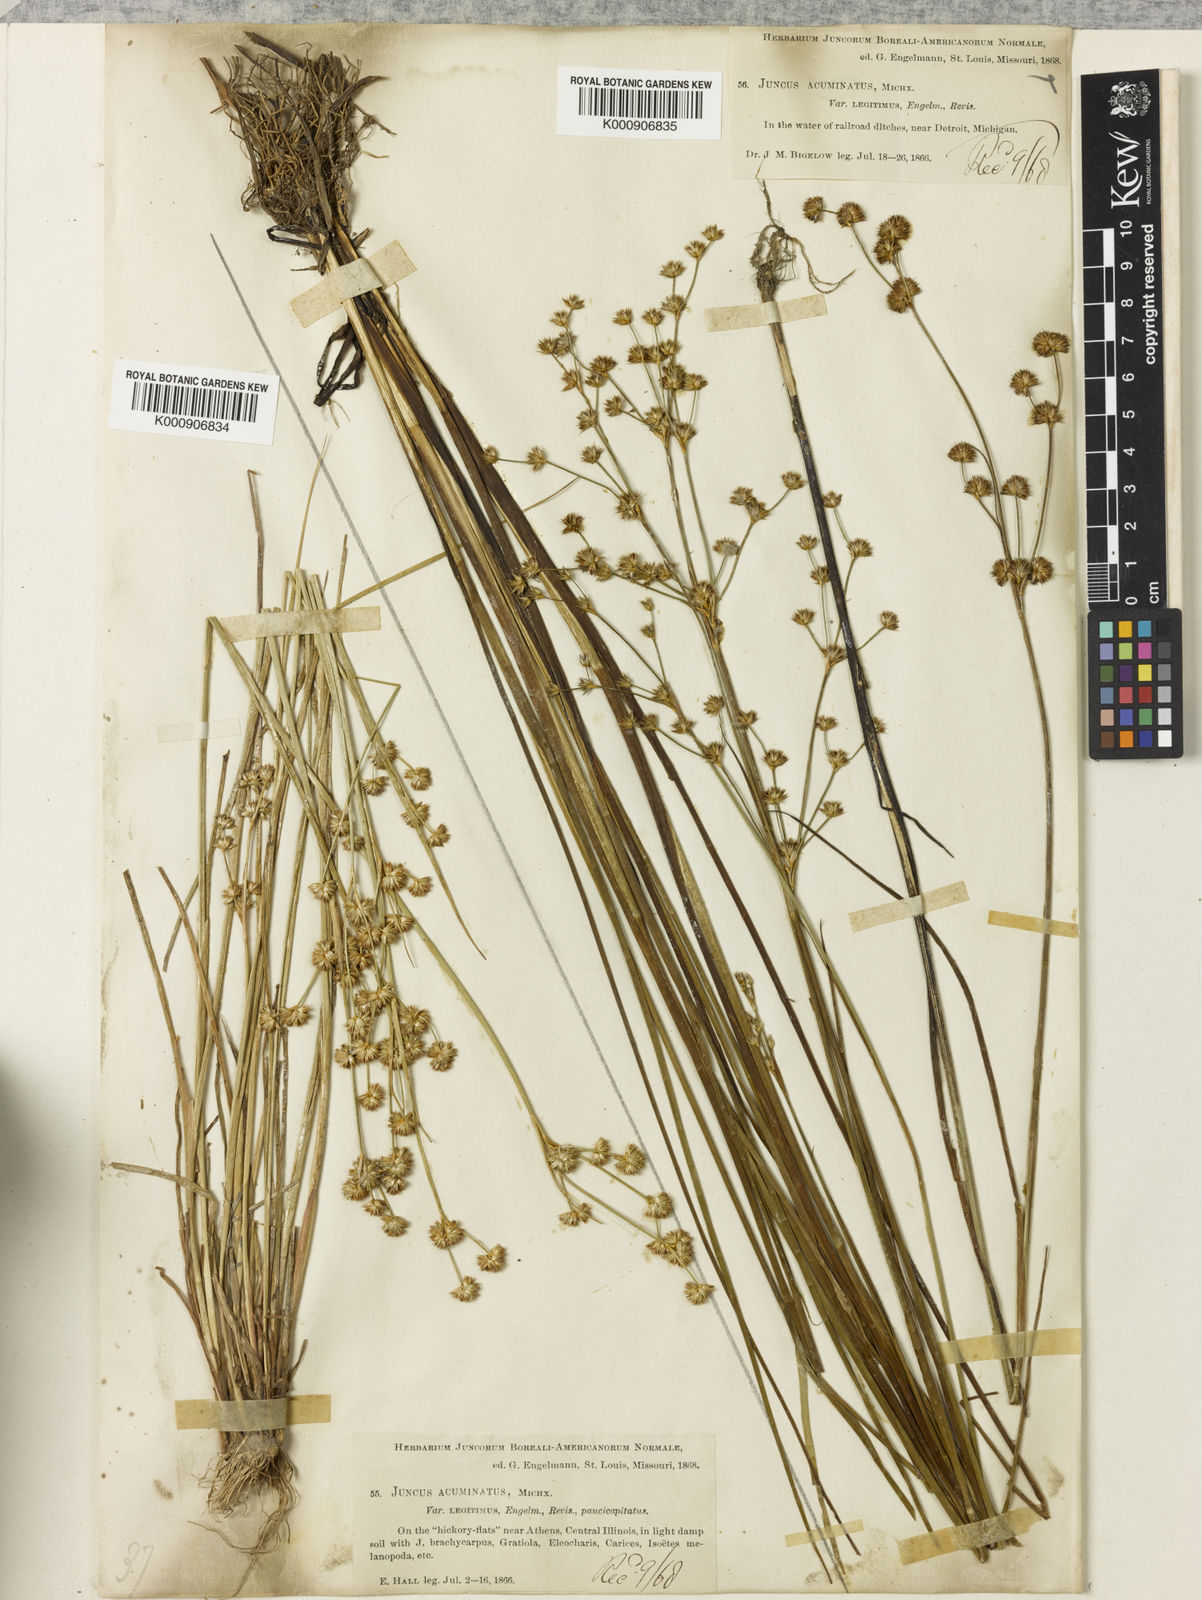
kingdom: Plantae
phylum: Tracheophyta
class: Liliopsida
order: Poales
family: Juncaceae
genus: Juncus
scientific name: Juncus acuminatus
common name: Knotty-leaved rush
